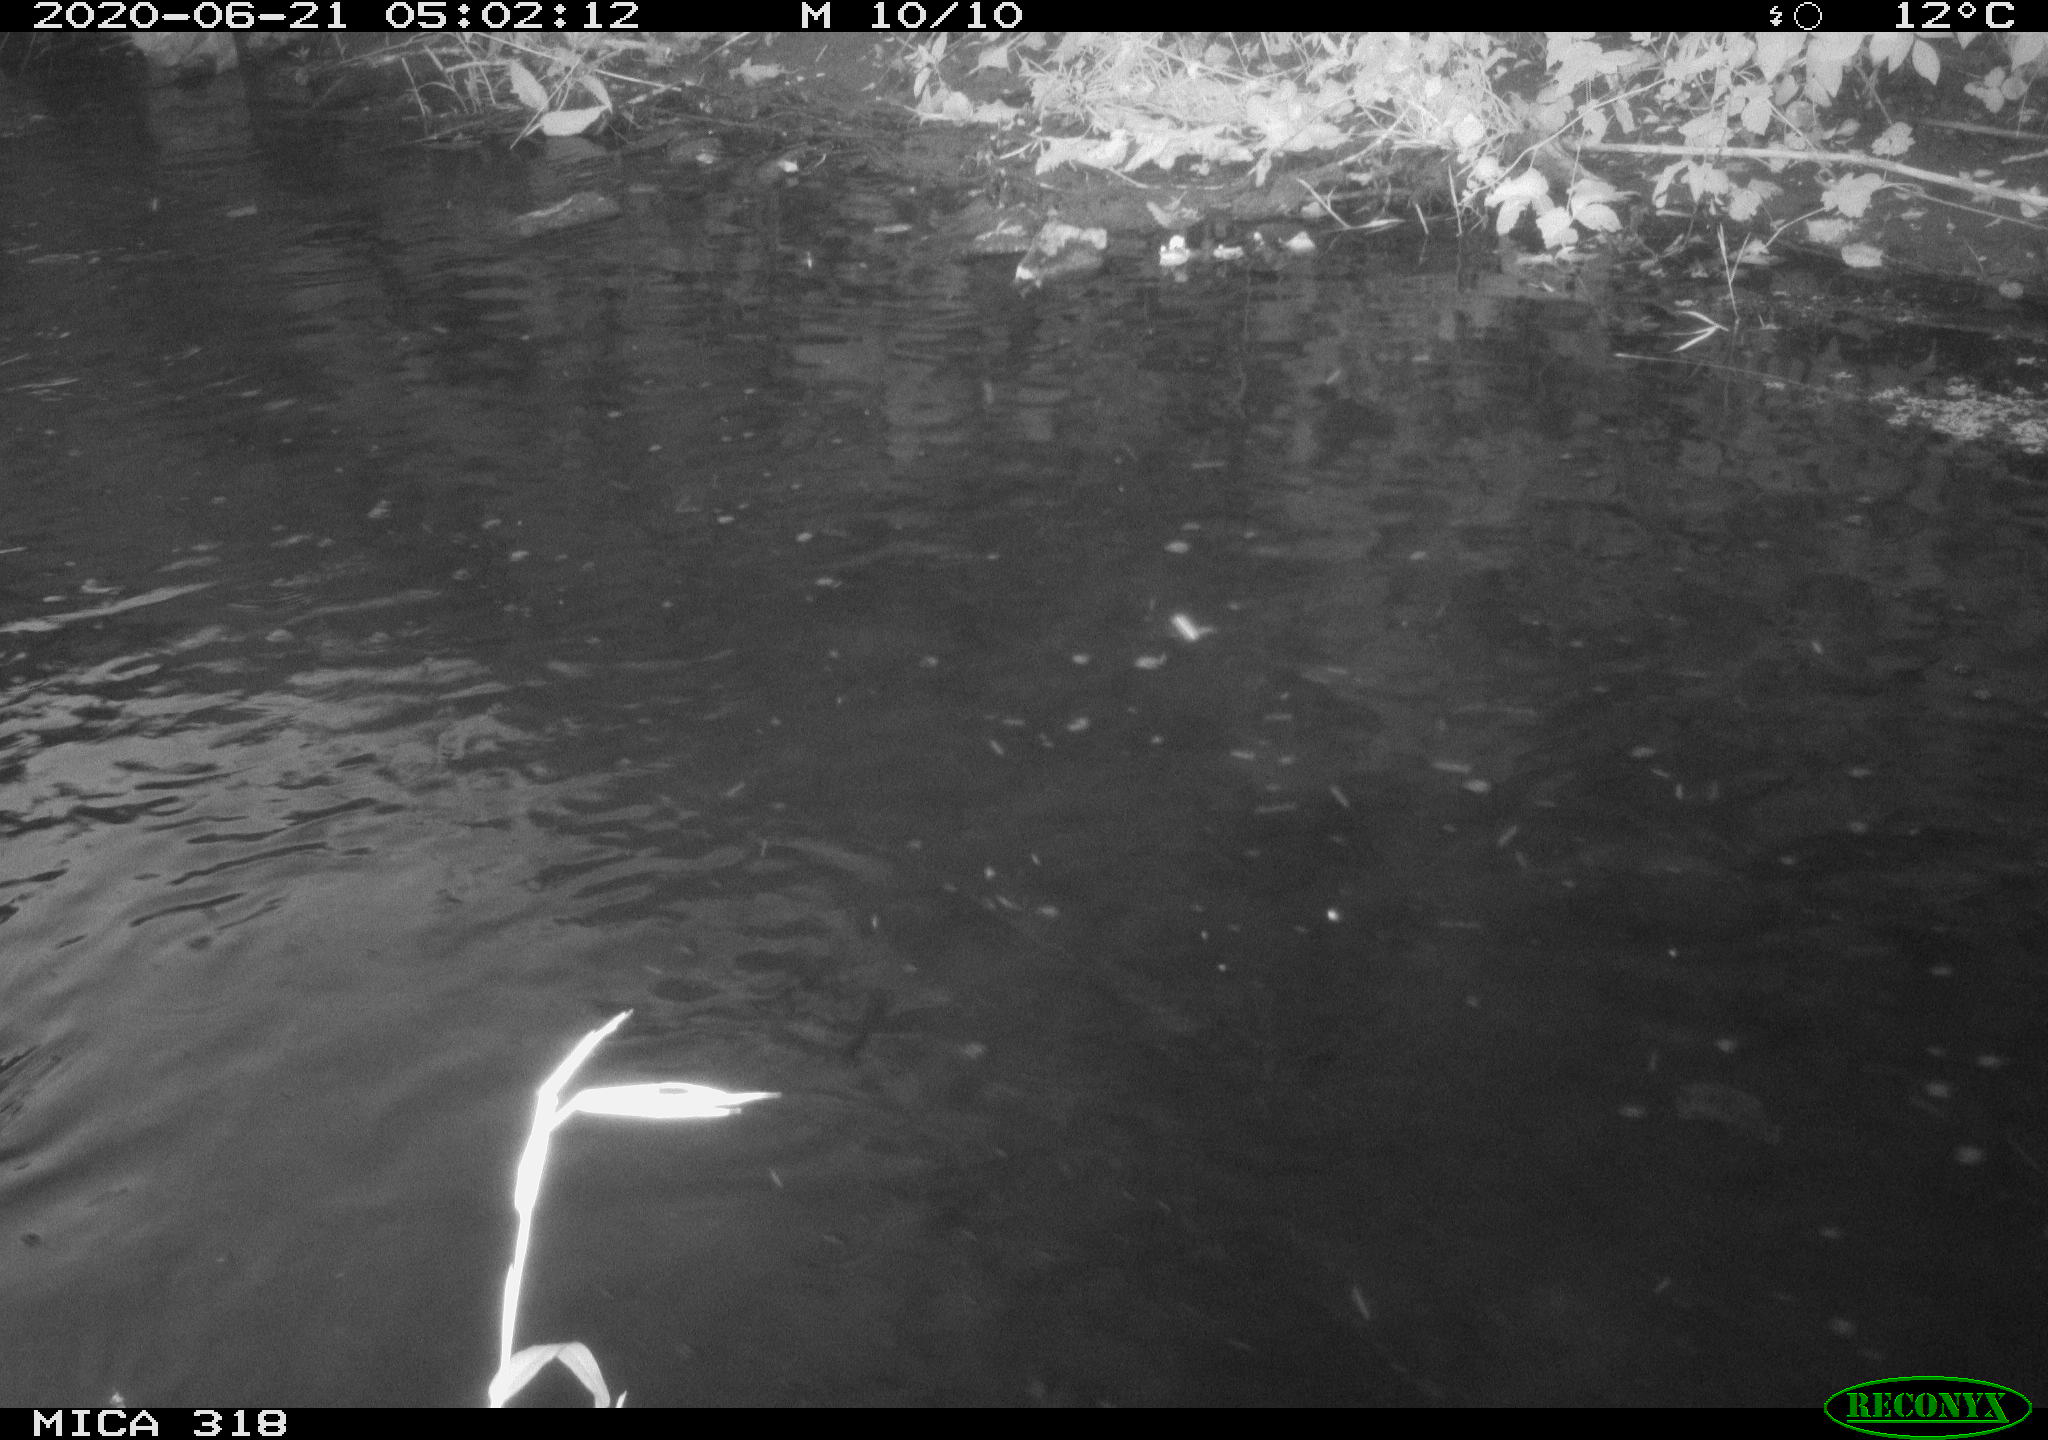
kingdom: Animalia
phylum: Chordata
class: Aves
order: Anseriformes
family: Anatidae
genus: Anas
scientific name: Anas platyrhynchos
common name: Mallard
